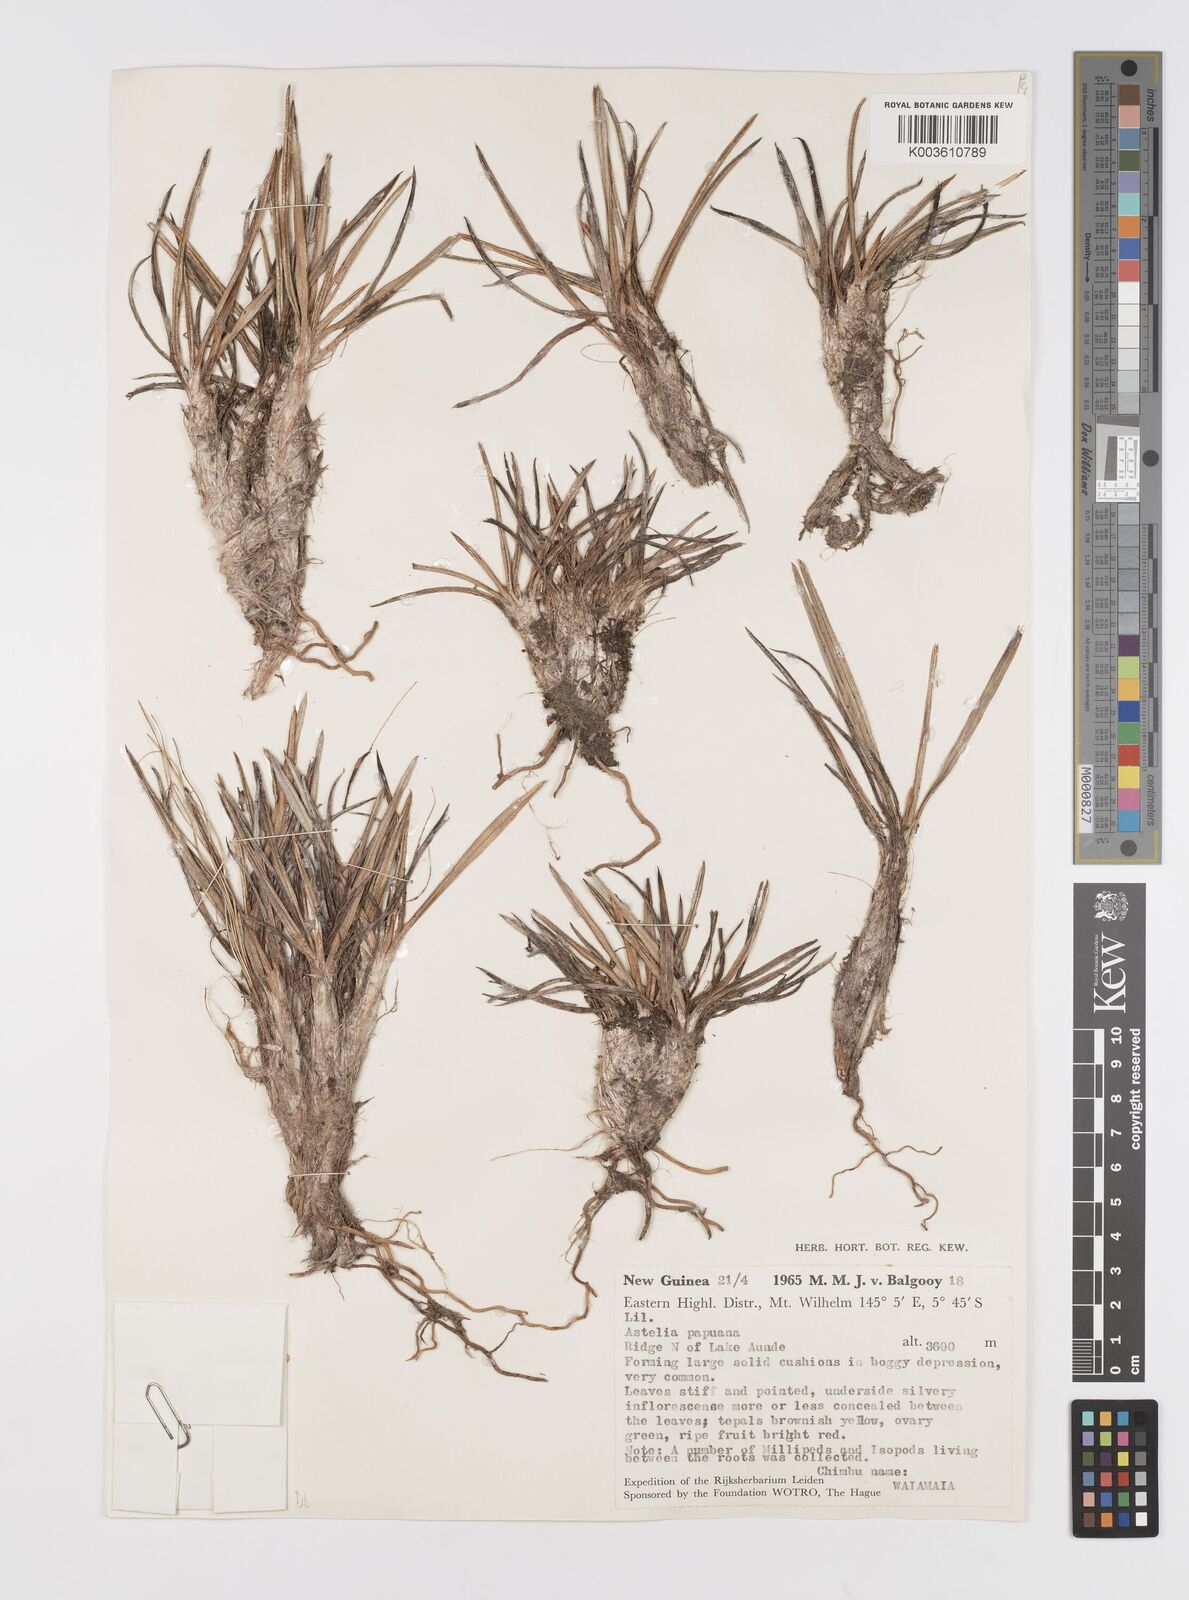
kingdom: Plantae
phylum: Tracheophyta
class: Liliopsida
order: Asparagales
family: Asteliaceae
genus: Astelia
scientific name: Astelia alpina
